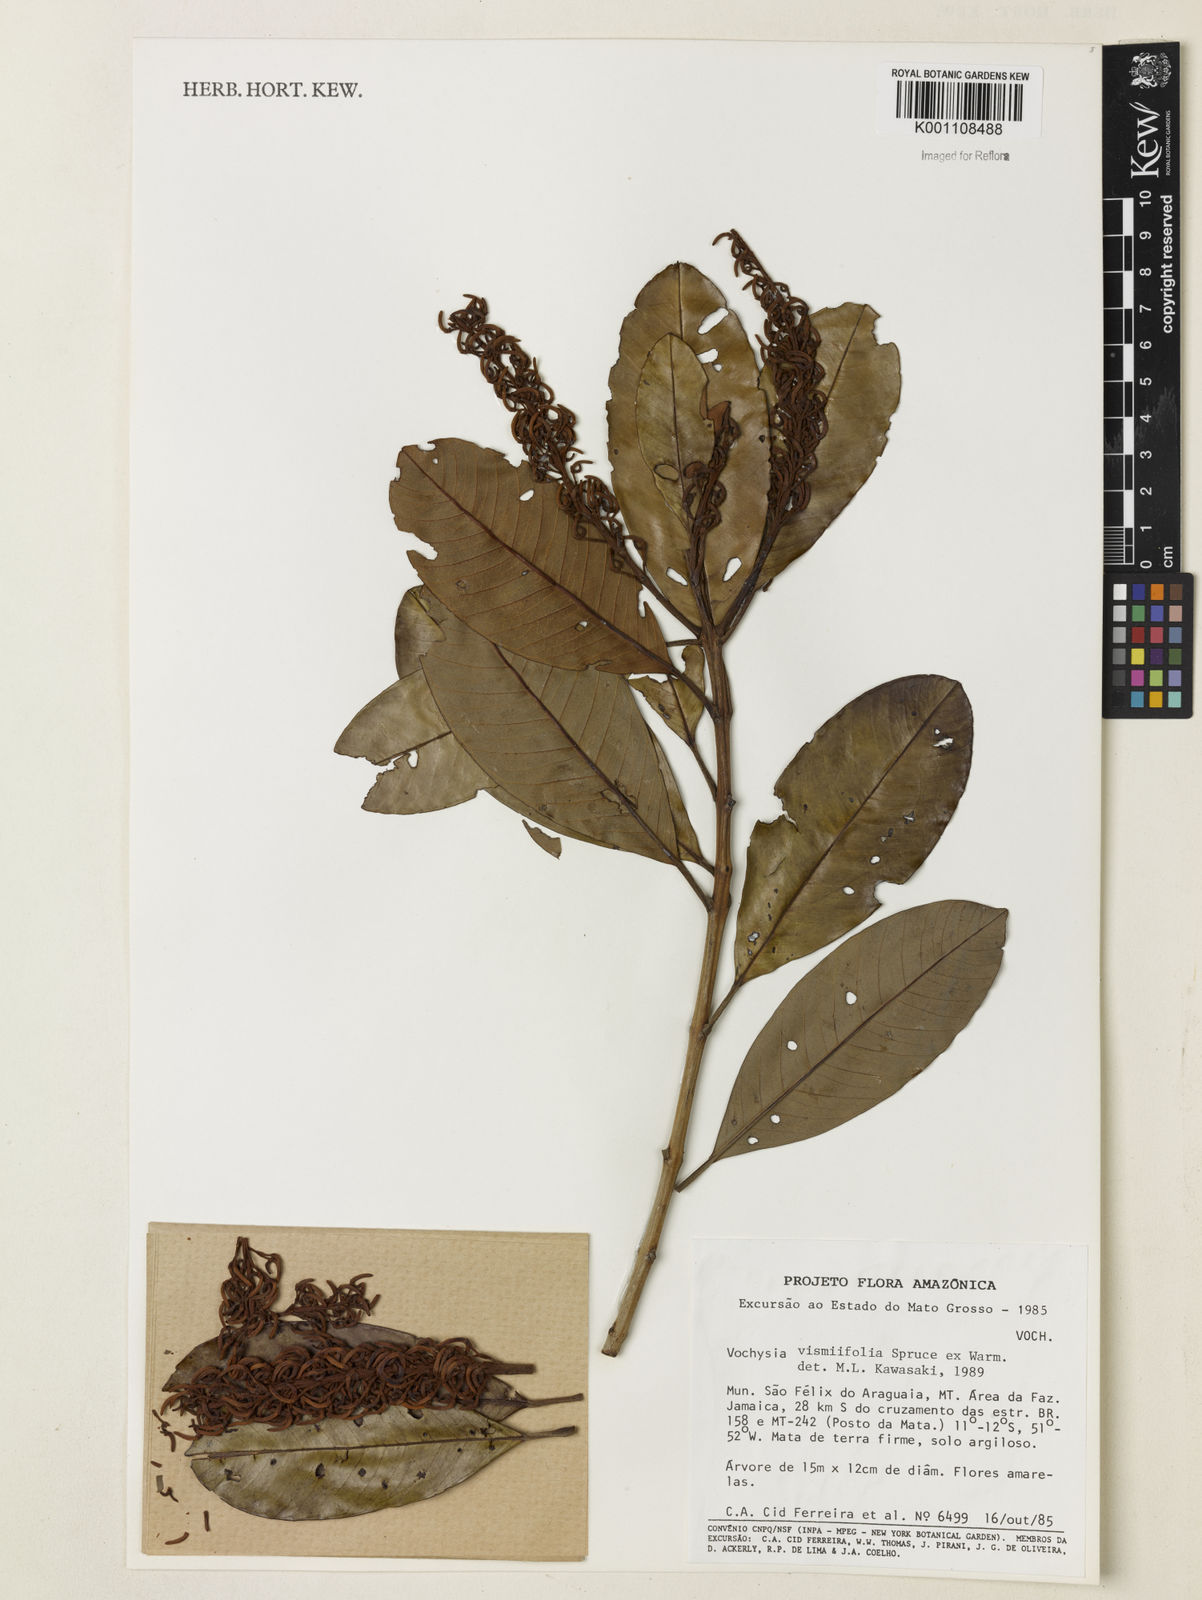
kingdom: Plantae
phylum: Tracheophyta
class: Magnoliopsida
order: Myrtales
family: Vochysiaceae
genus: Vochysia
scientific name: Vochysia vismiifolia
